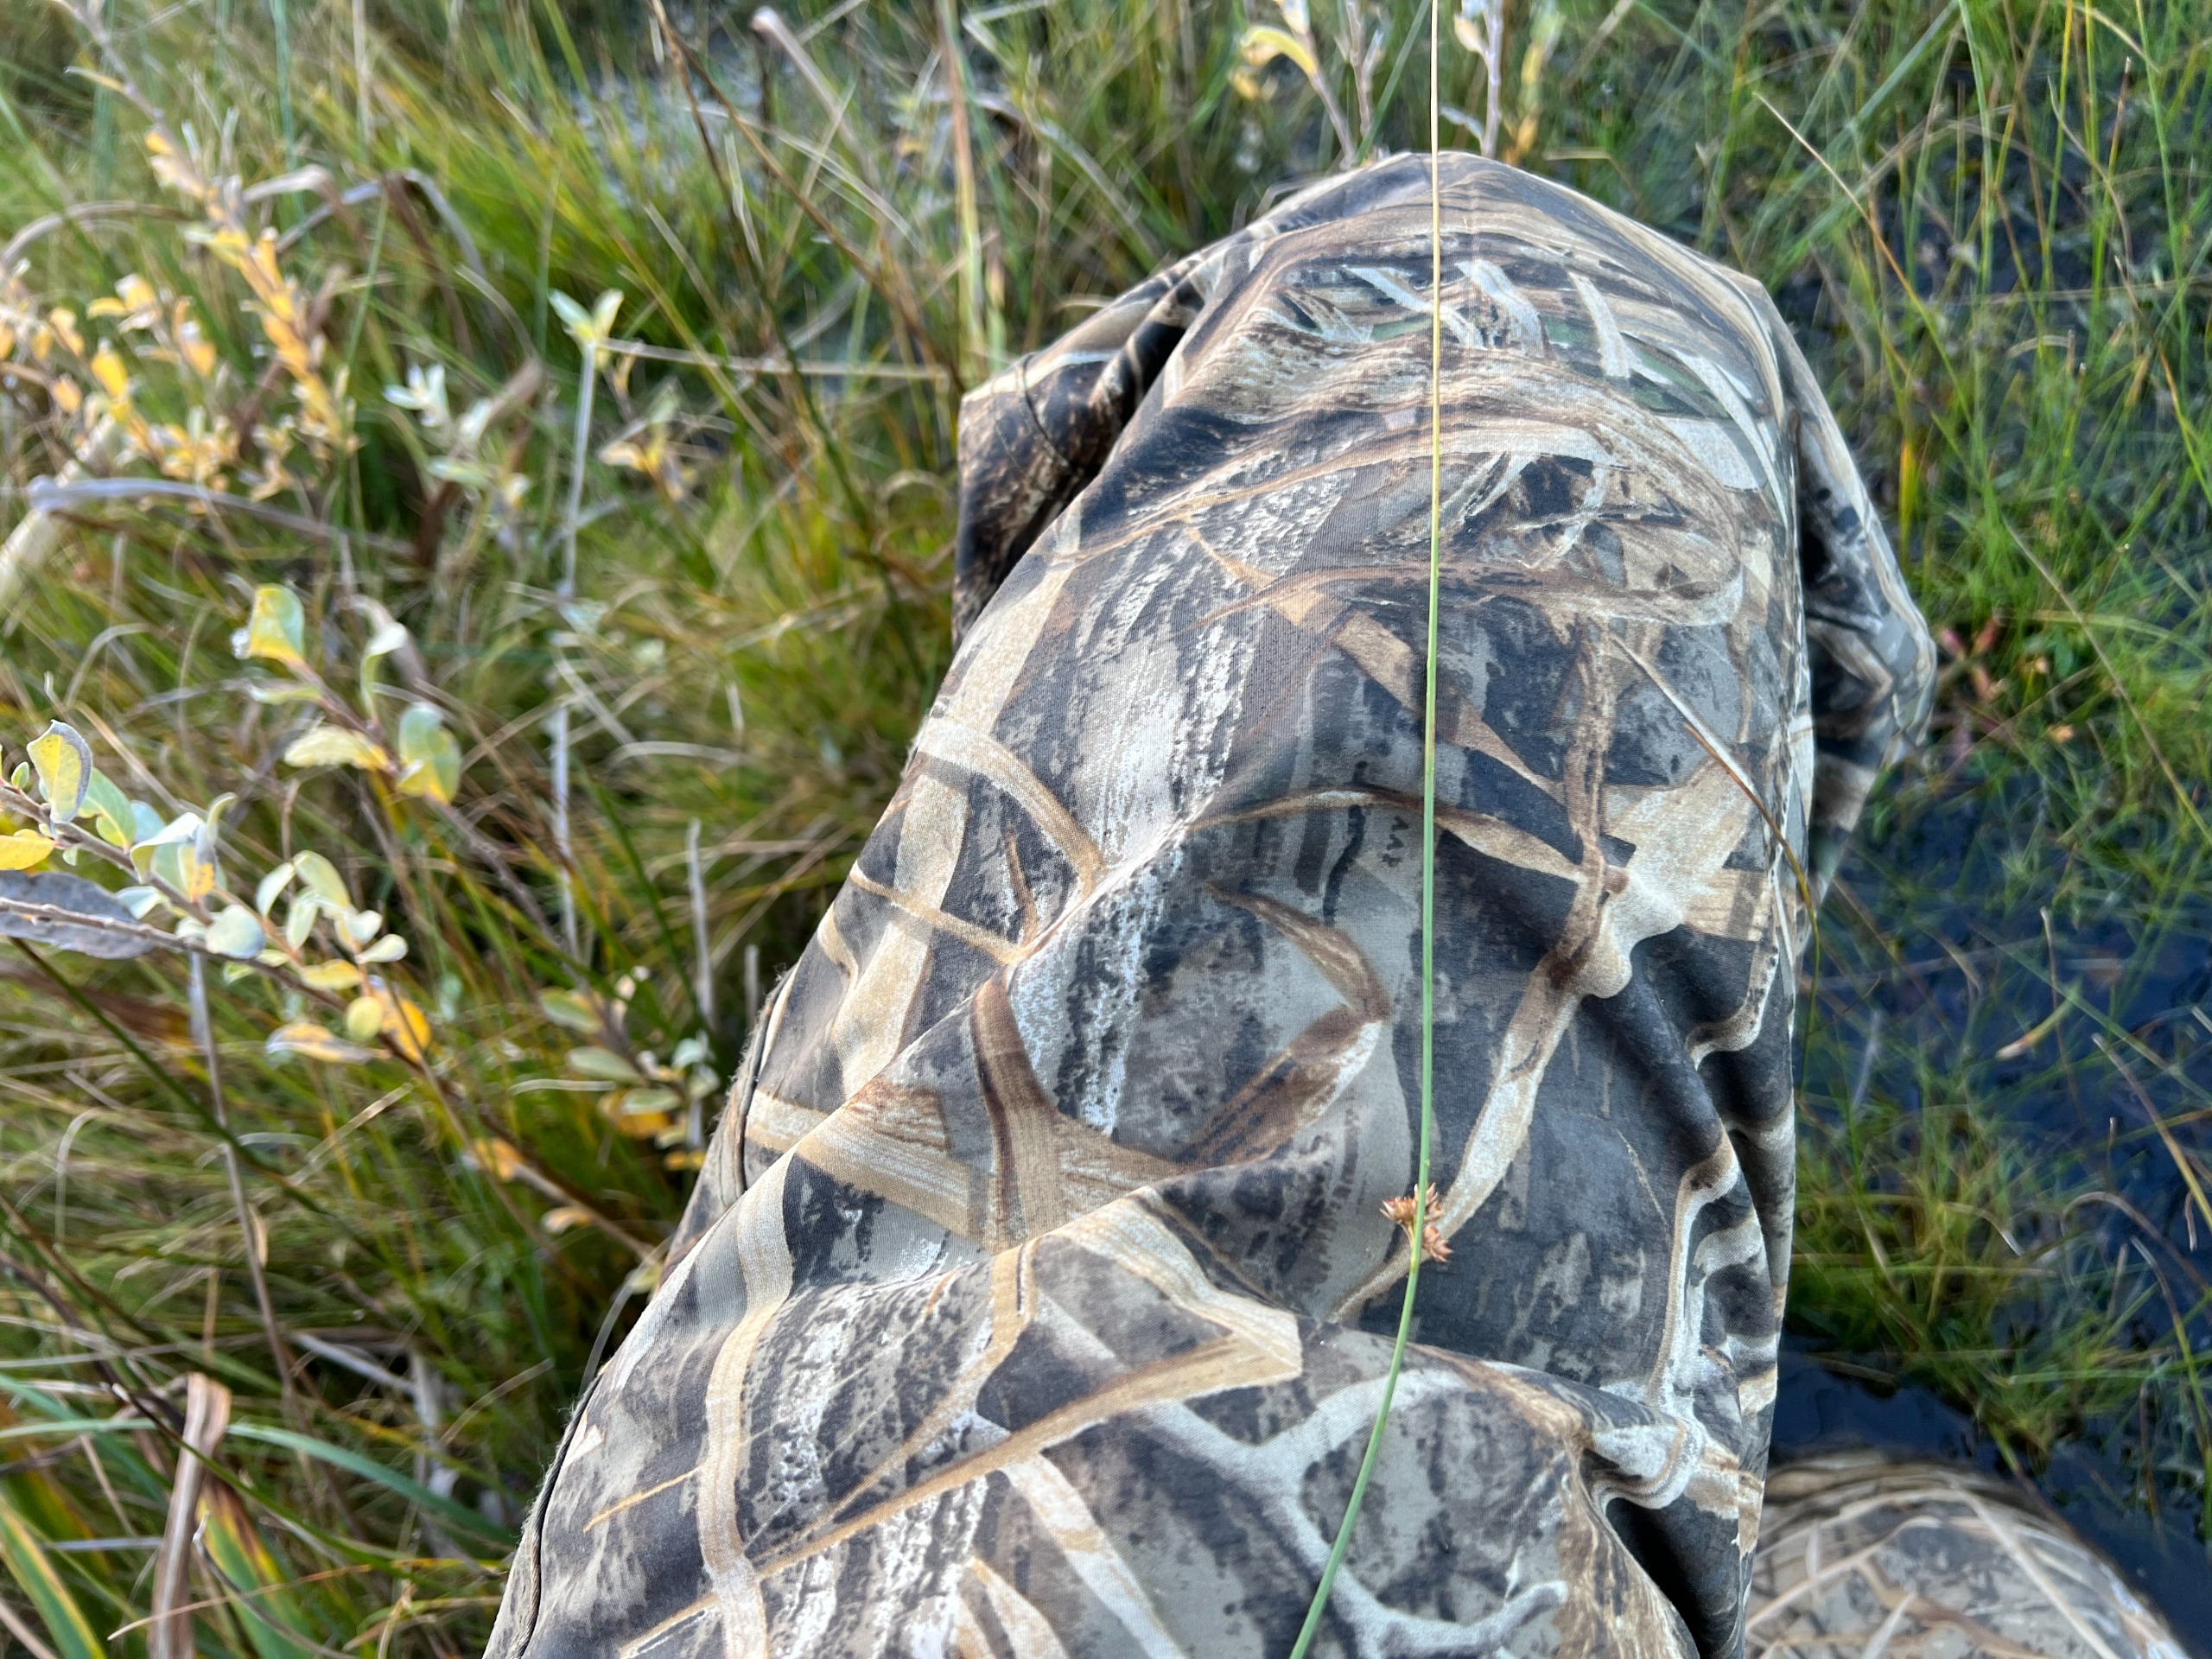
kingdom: Plantae
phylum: Tracheophyta
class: Liliopsida
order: Poales
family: Juncaceae
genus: Juncus
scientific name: Juncus filiformis
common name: Tråd-siv
